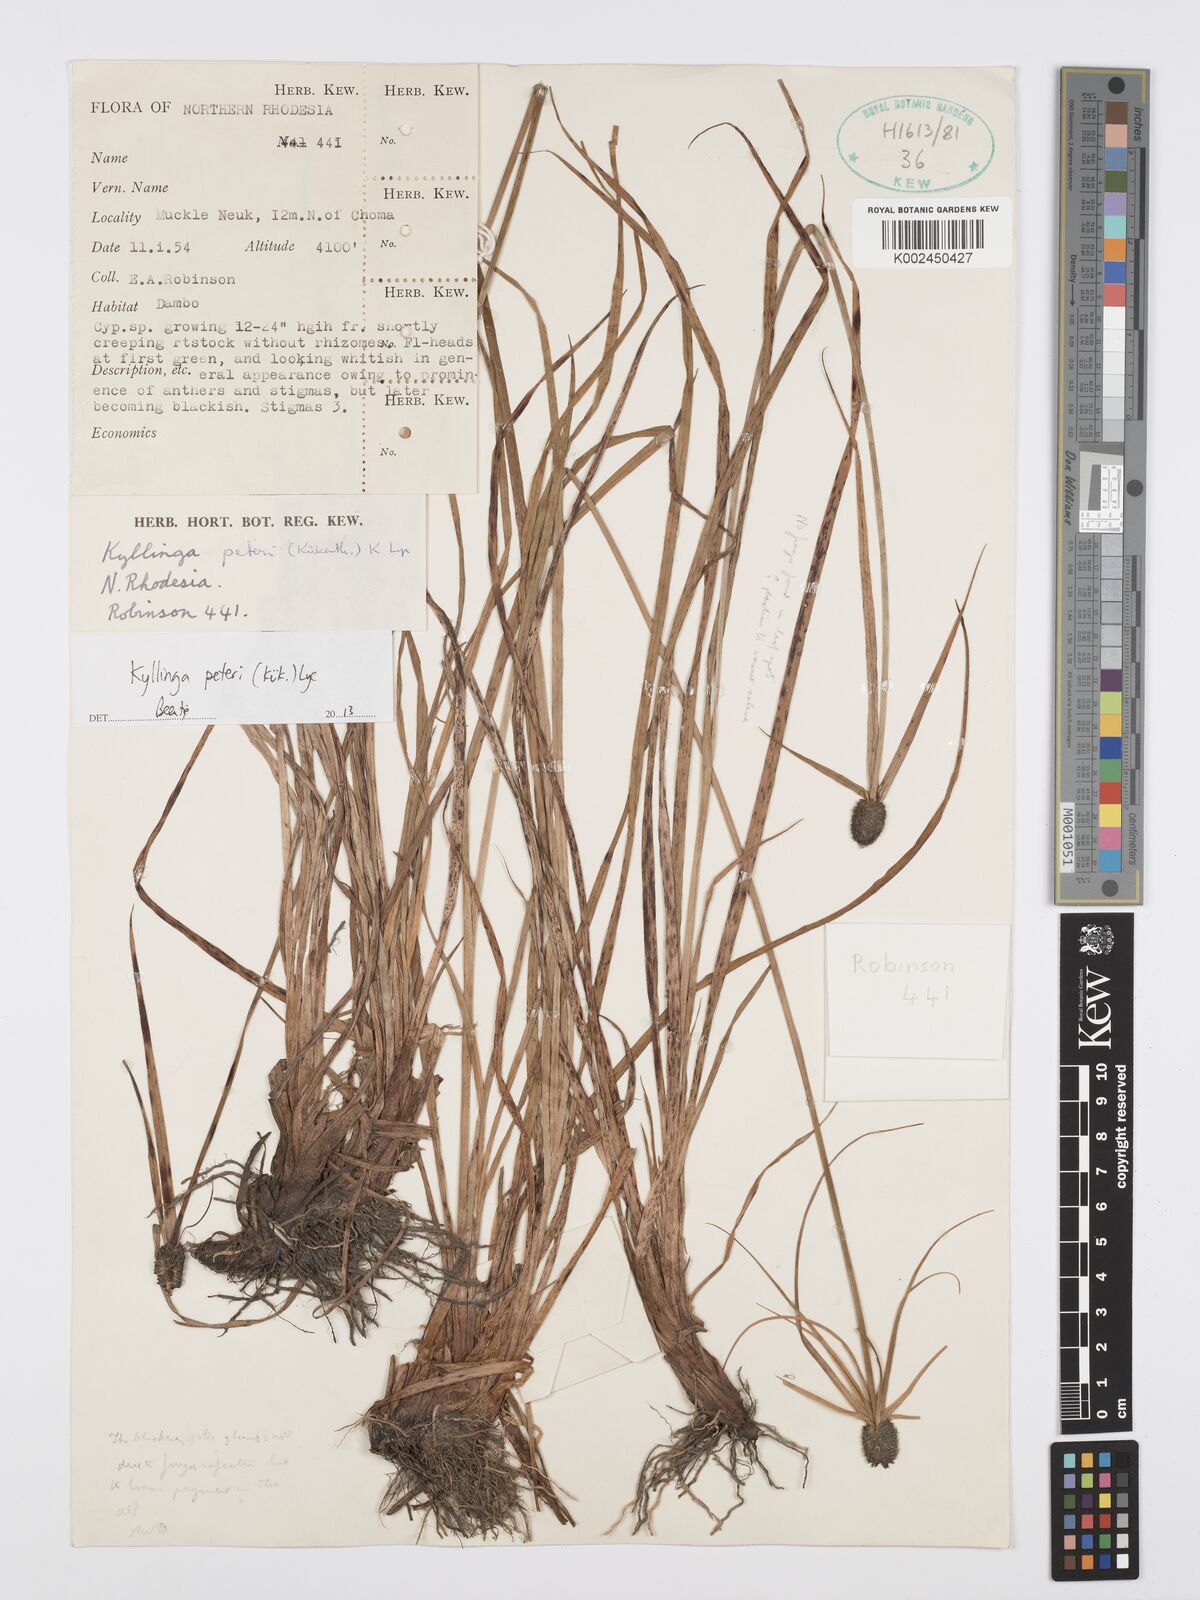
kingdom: Plantae
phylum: Tracheophyta
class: Liliopsida
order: Poales
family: Cyperaceae
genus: Cyperus
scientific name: Cyperus peteri
